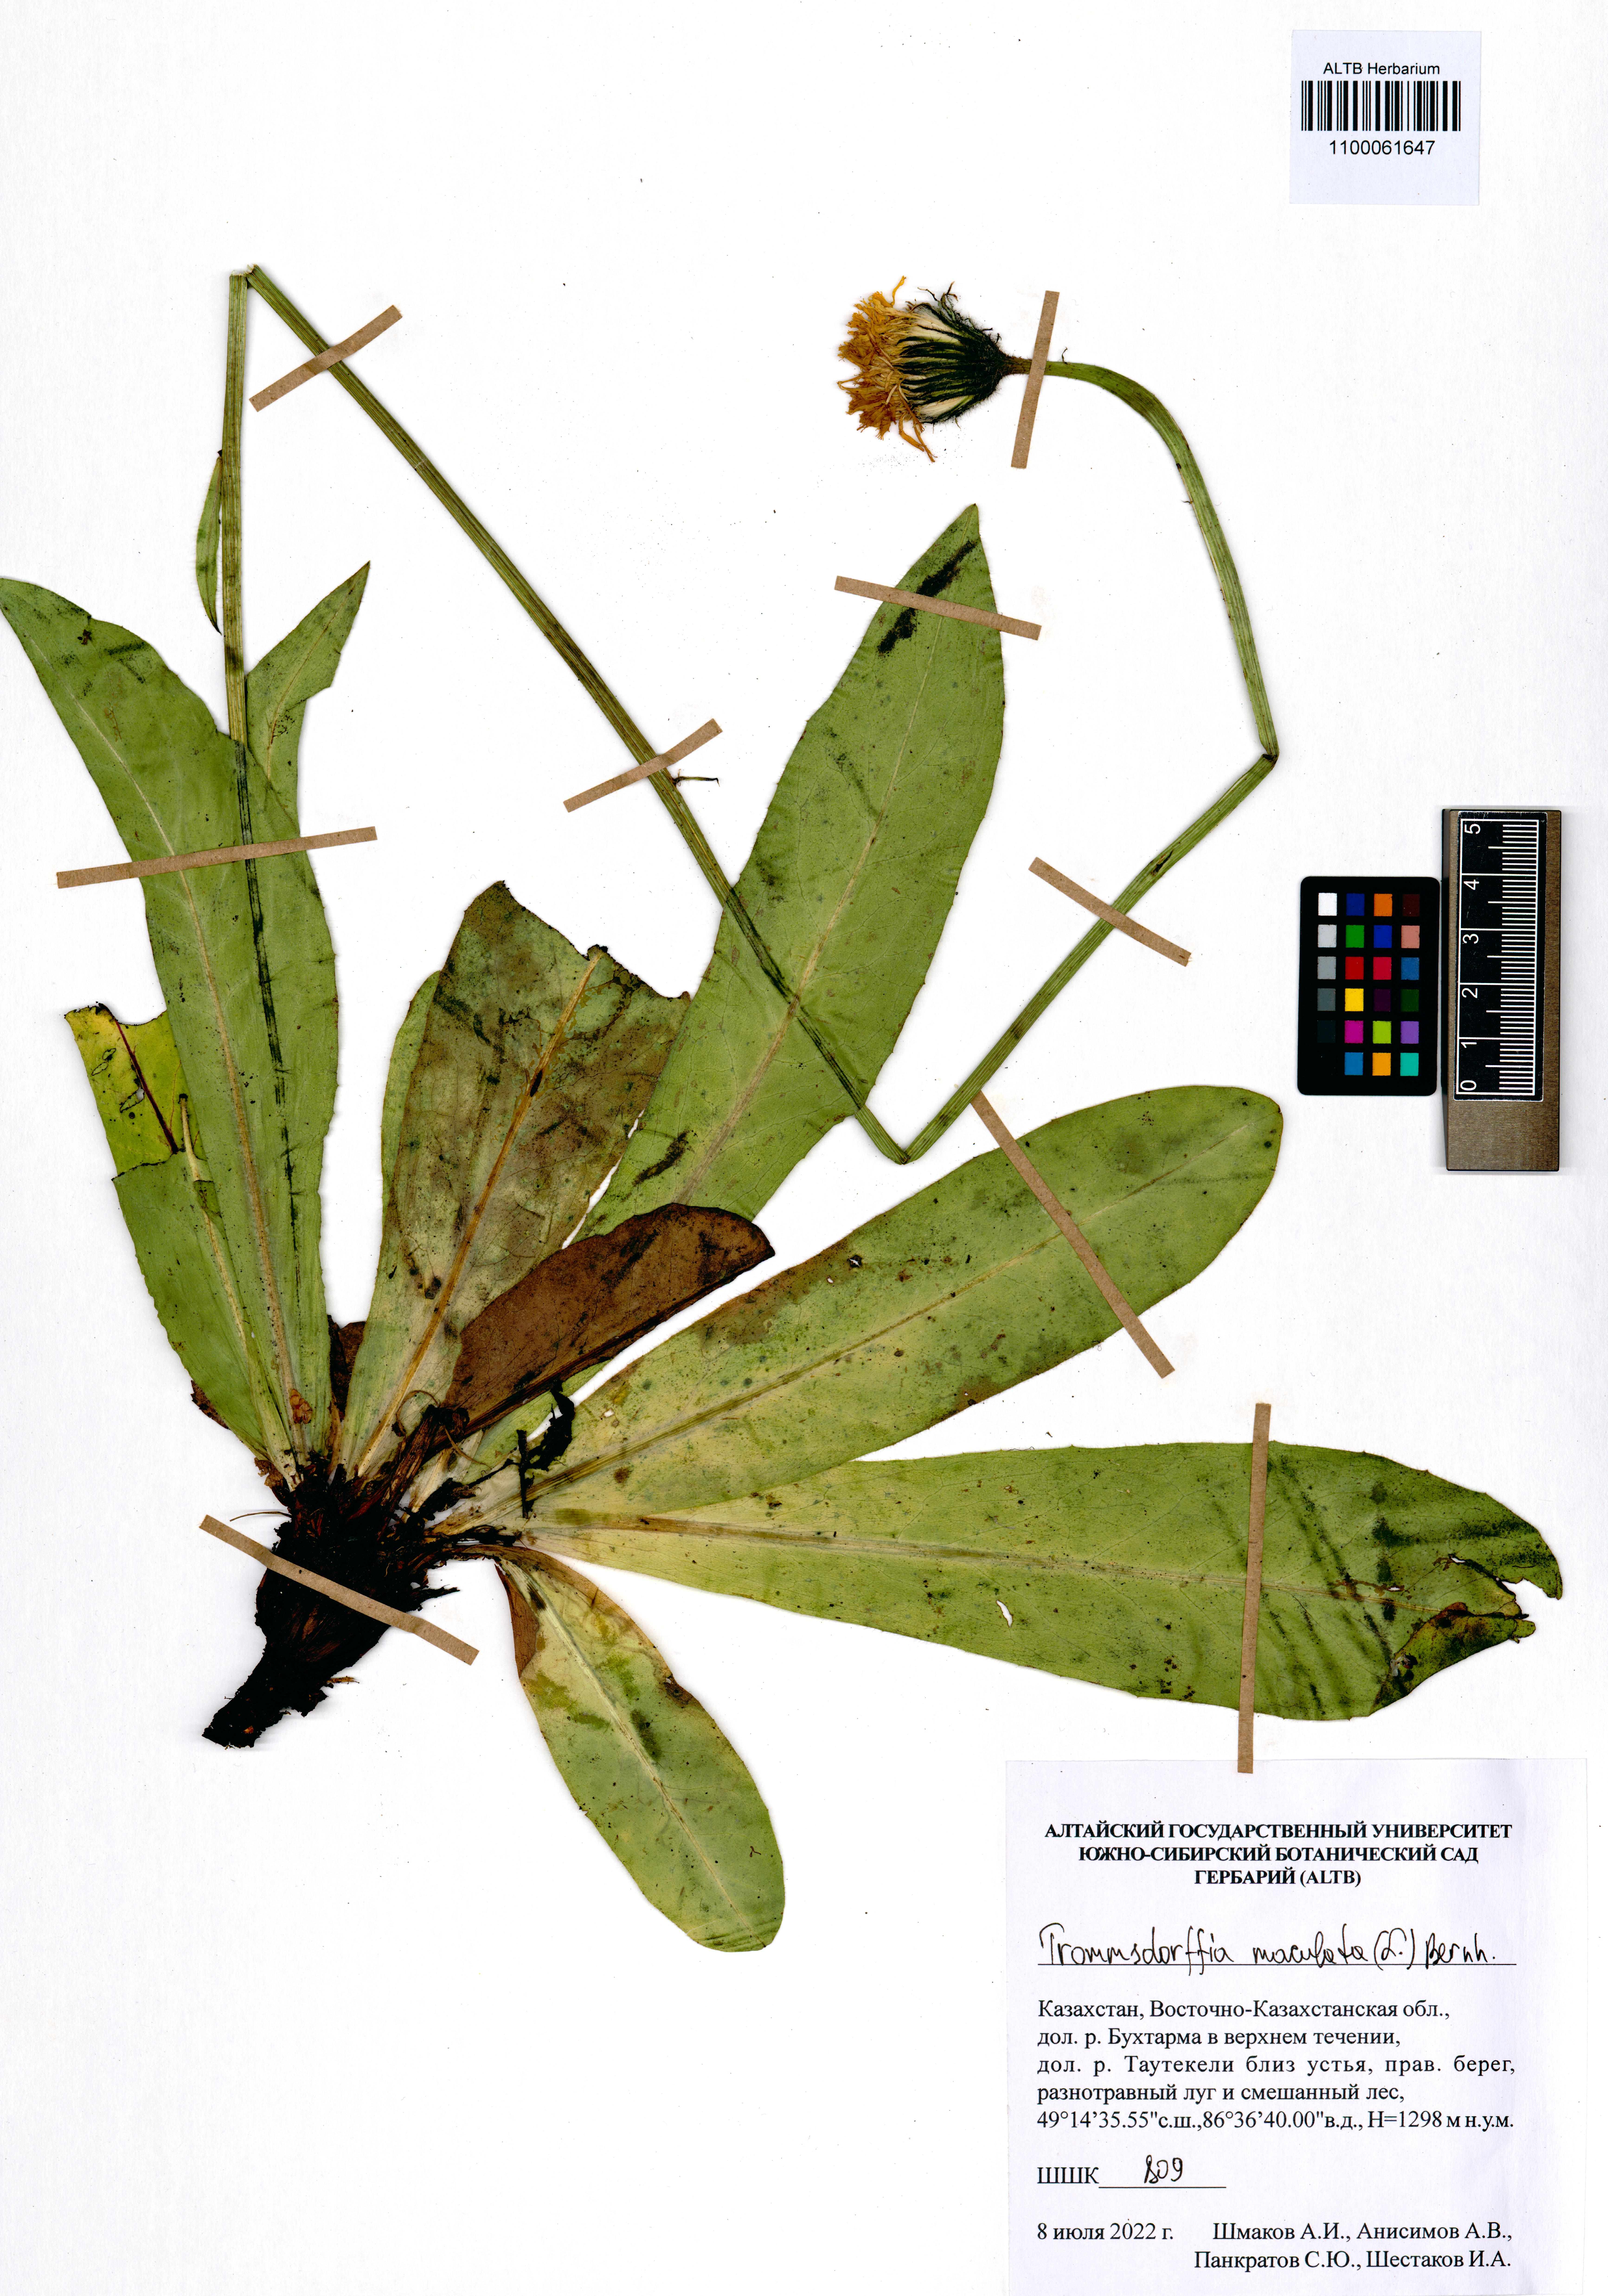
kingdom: Plantae
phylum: Tracheophyta
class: Magnoliopsida
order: Asterales
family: Asteraceae
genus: Trommsdorffia
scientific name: Trommsdorffia maculata
